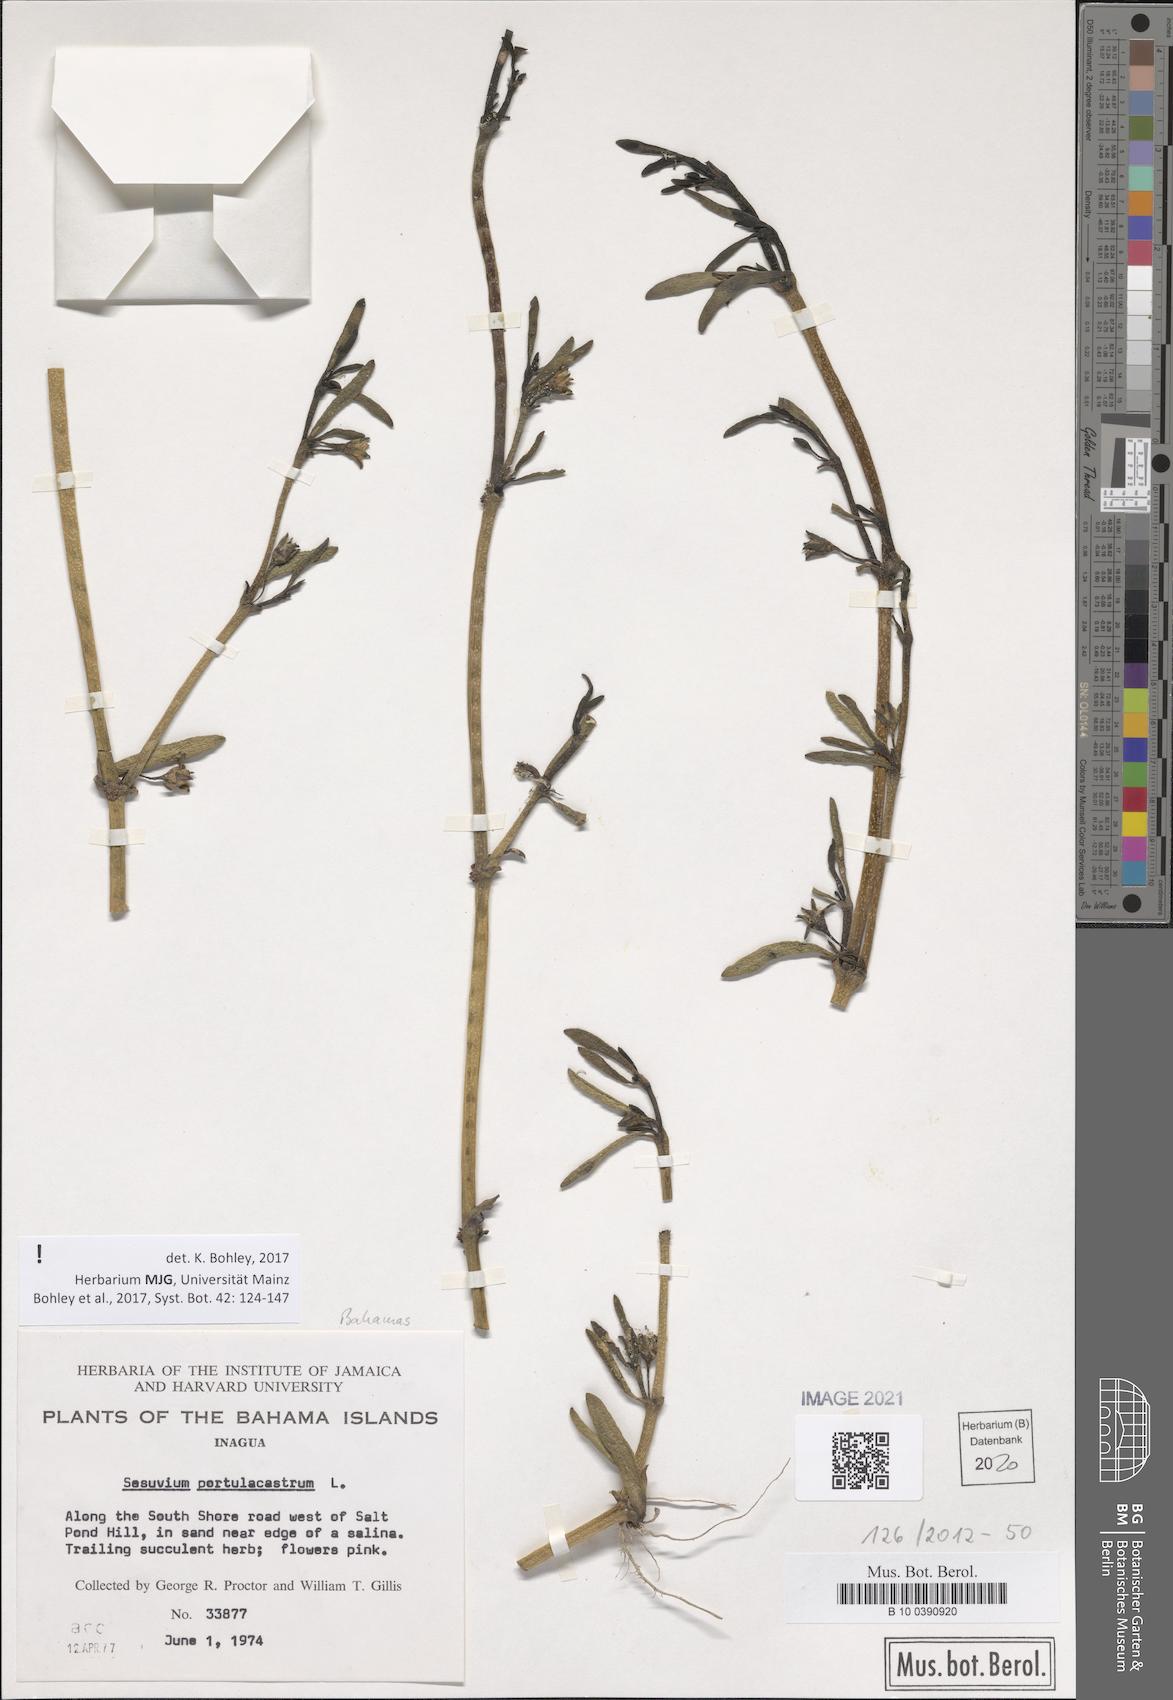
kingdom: Plantae
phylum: Tracheophyta
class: Magnoliopsida
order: Caryophyllales
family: Aizoaceae
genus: Sesuvium
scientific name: Sesuvium portulacastrum
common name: Sea-purslane
